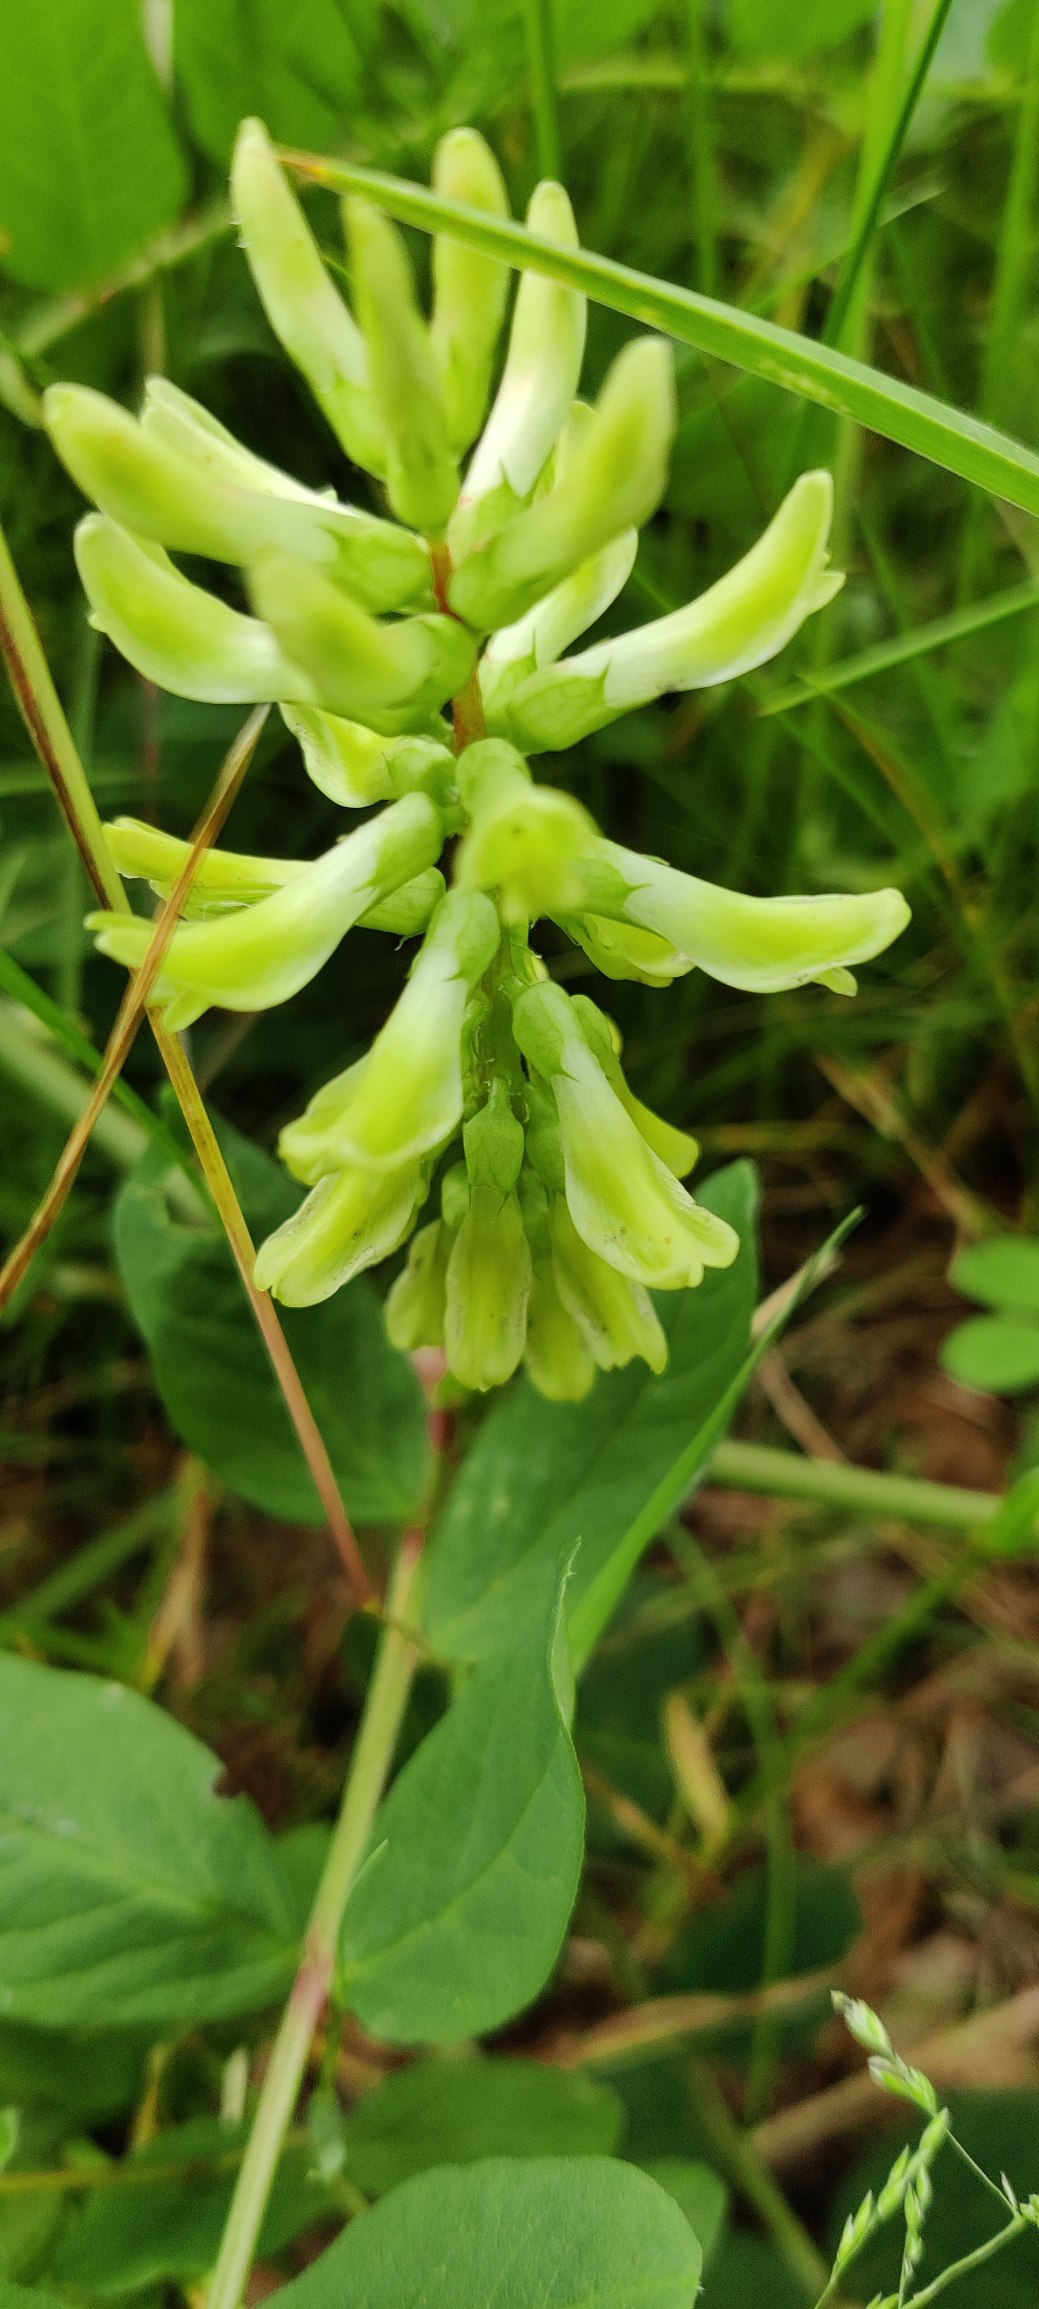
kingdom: Plantae
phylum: Tracheophyta
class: Magnoliopsida
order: Fabales
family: Fabaceae
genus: Astragalus
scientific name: Astragalus glycyphyllos
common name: Sød astragel
